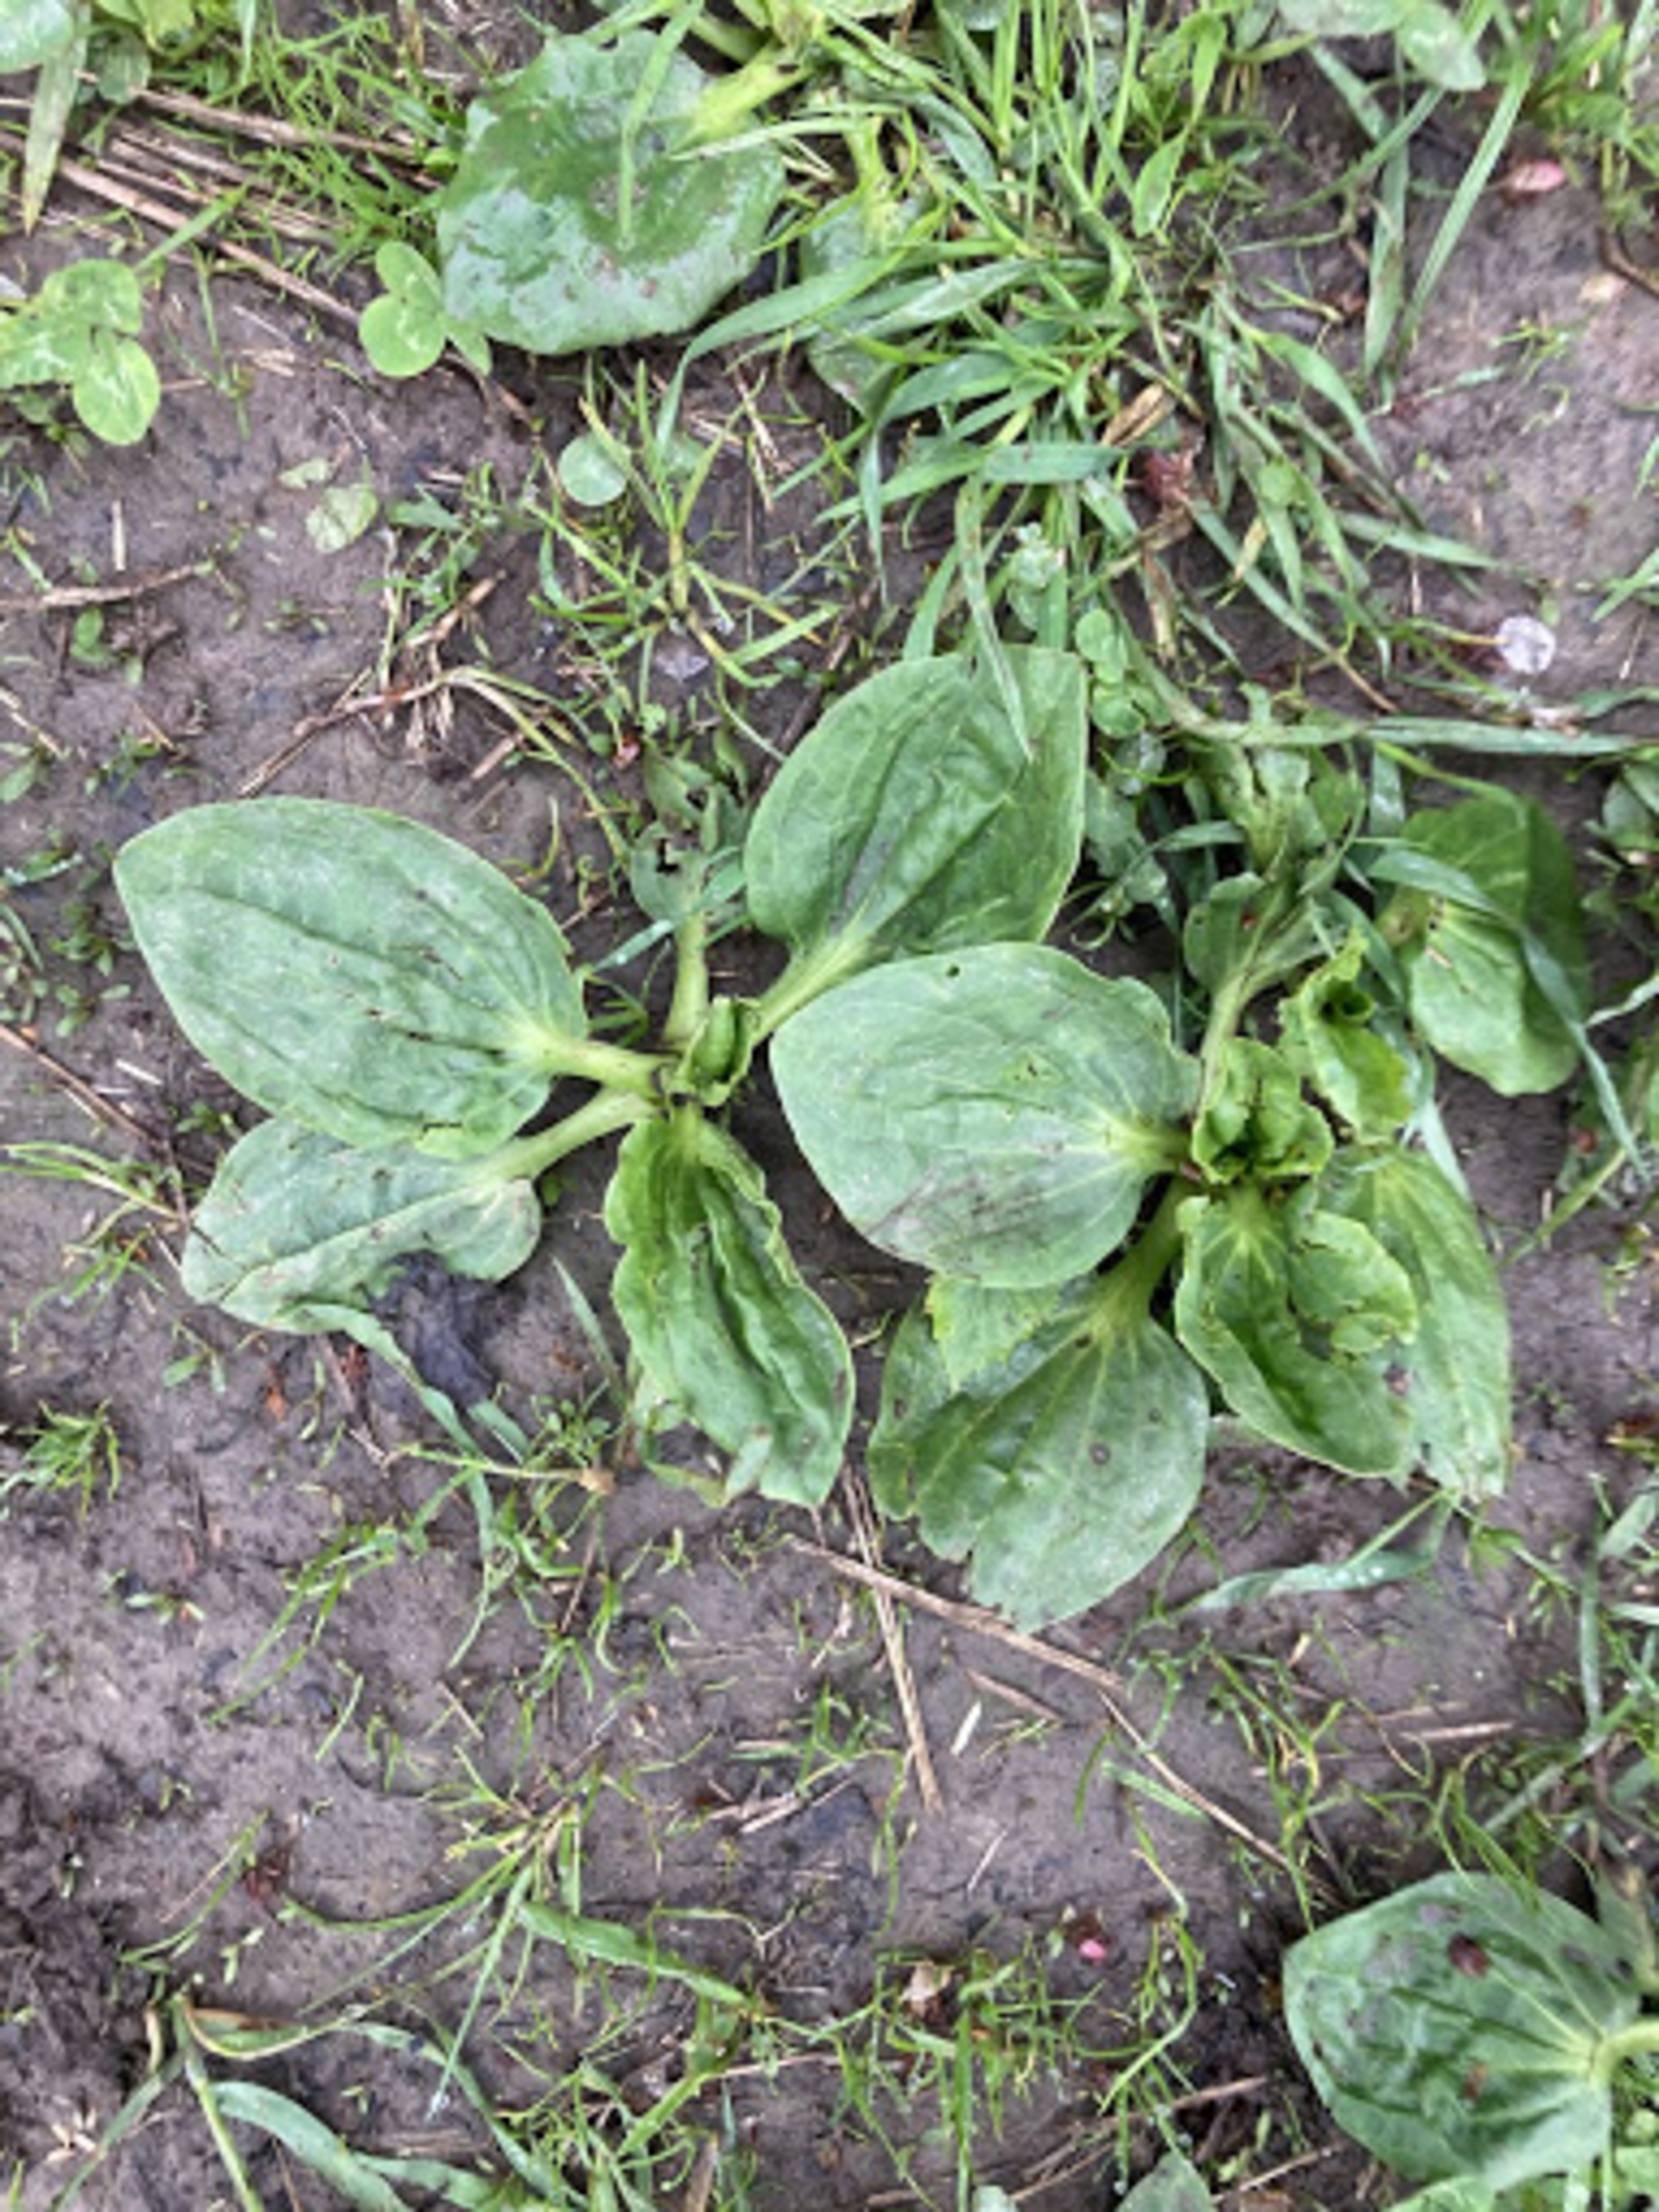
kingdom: Plantae
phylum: Tracheophyta
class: Magnoliopsida
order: Lamiales
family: Plantaginaceae
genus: Plantago
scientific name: Plantago major
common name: Glat vejbred
